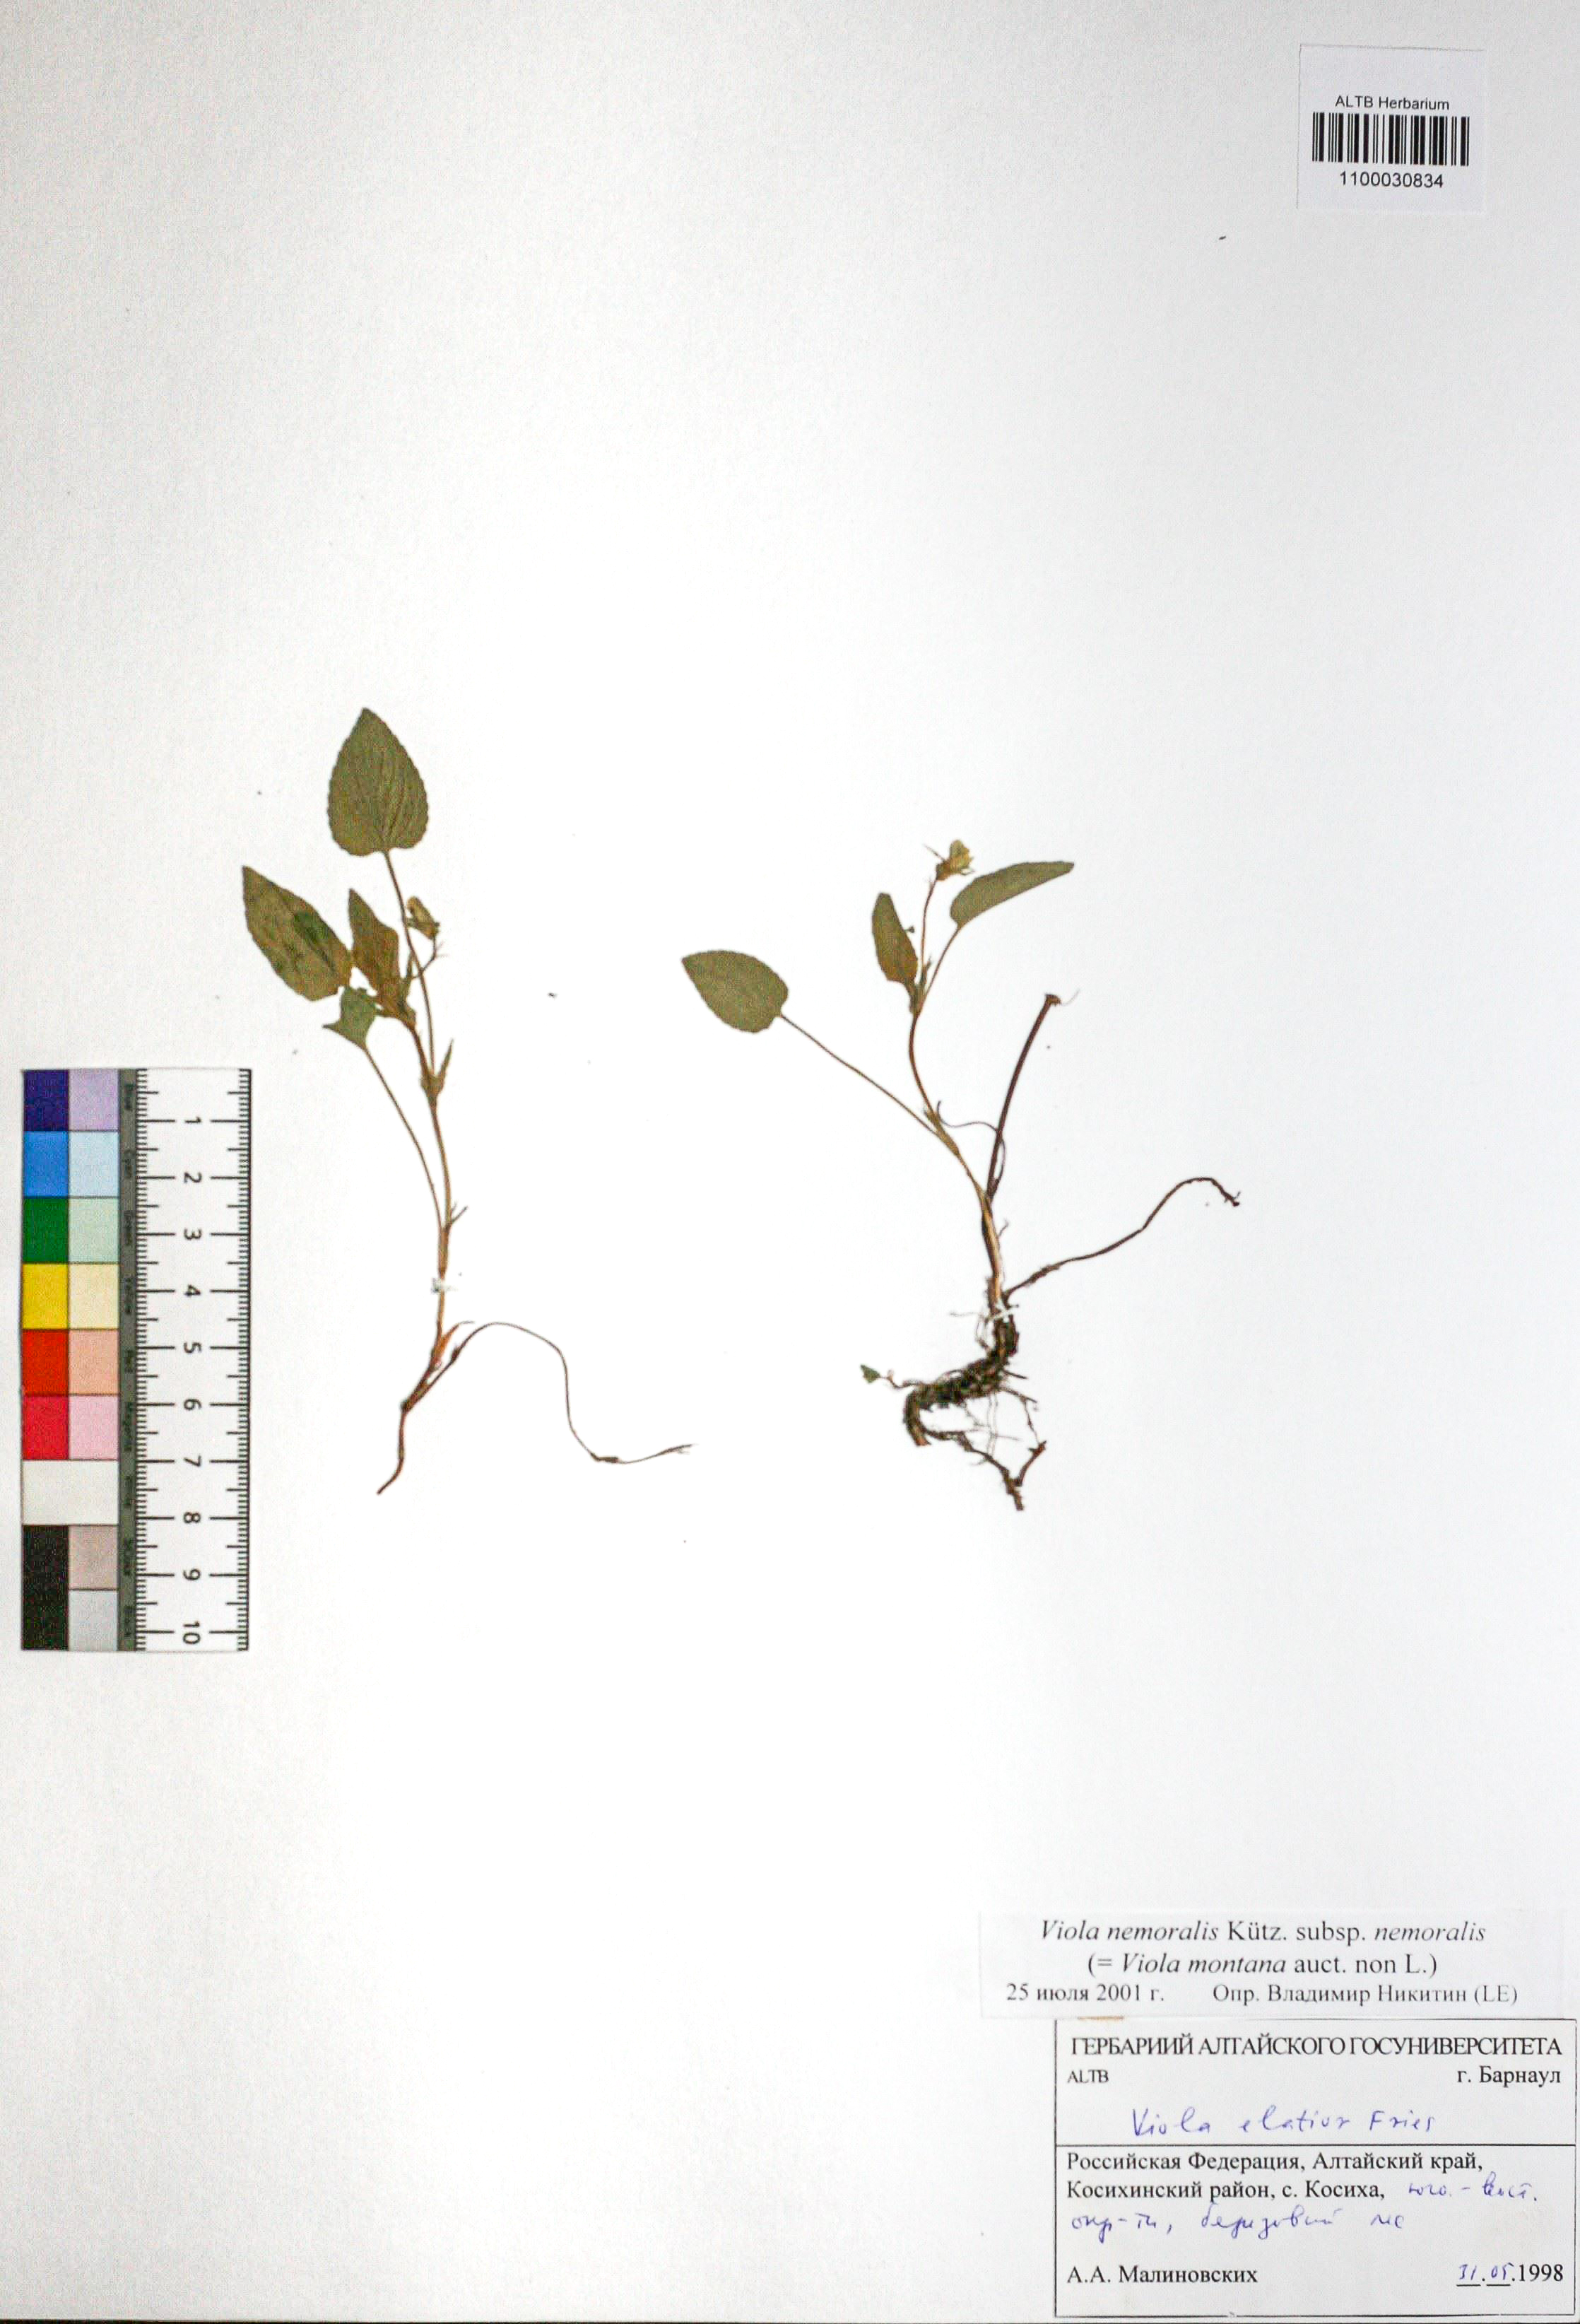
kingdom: Plantae
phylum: Tracheophyta
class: Magnoliopsida
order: Malpighiales
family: Violaceae
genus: Viola
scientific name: Viola ruppii
